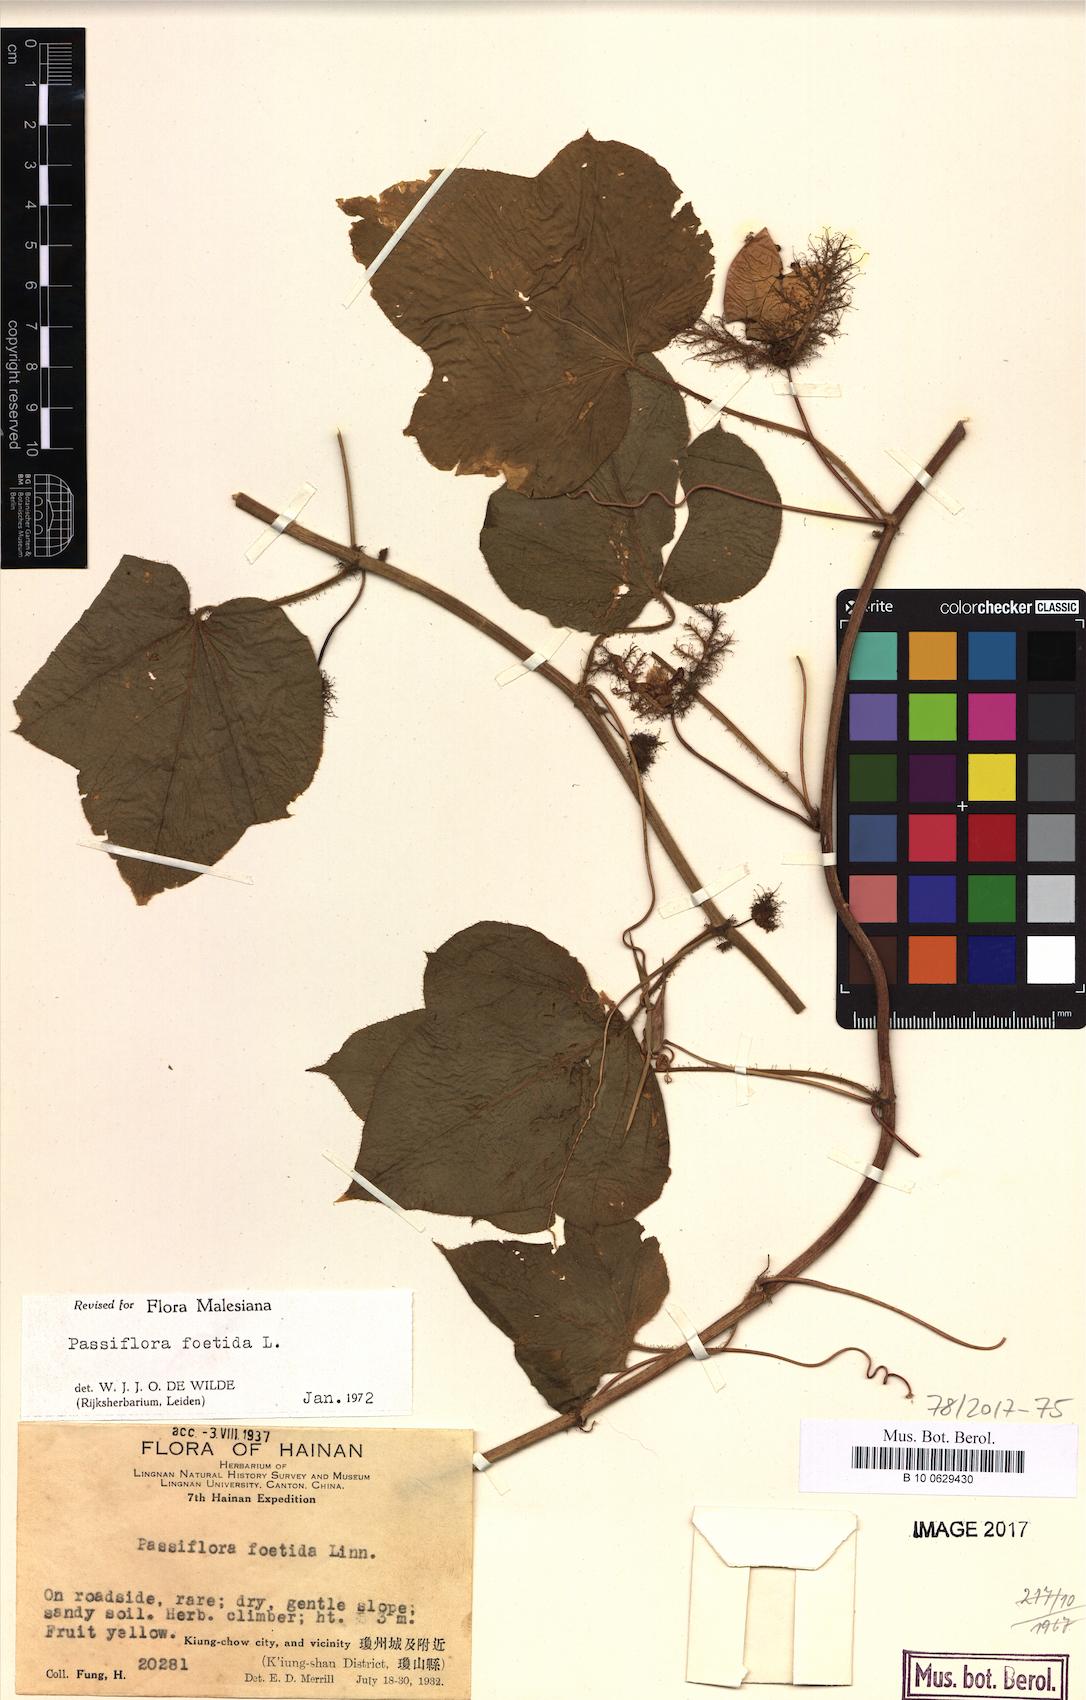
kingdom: Plantae
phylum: Tracheophyta
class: Magnoliopsida
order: Malpighiales
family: Passifloraceae
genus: Passiflora
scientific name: Passiflora foetida
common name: Fetid passionflower
